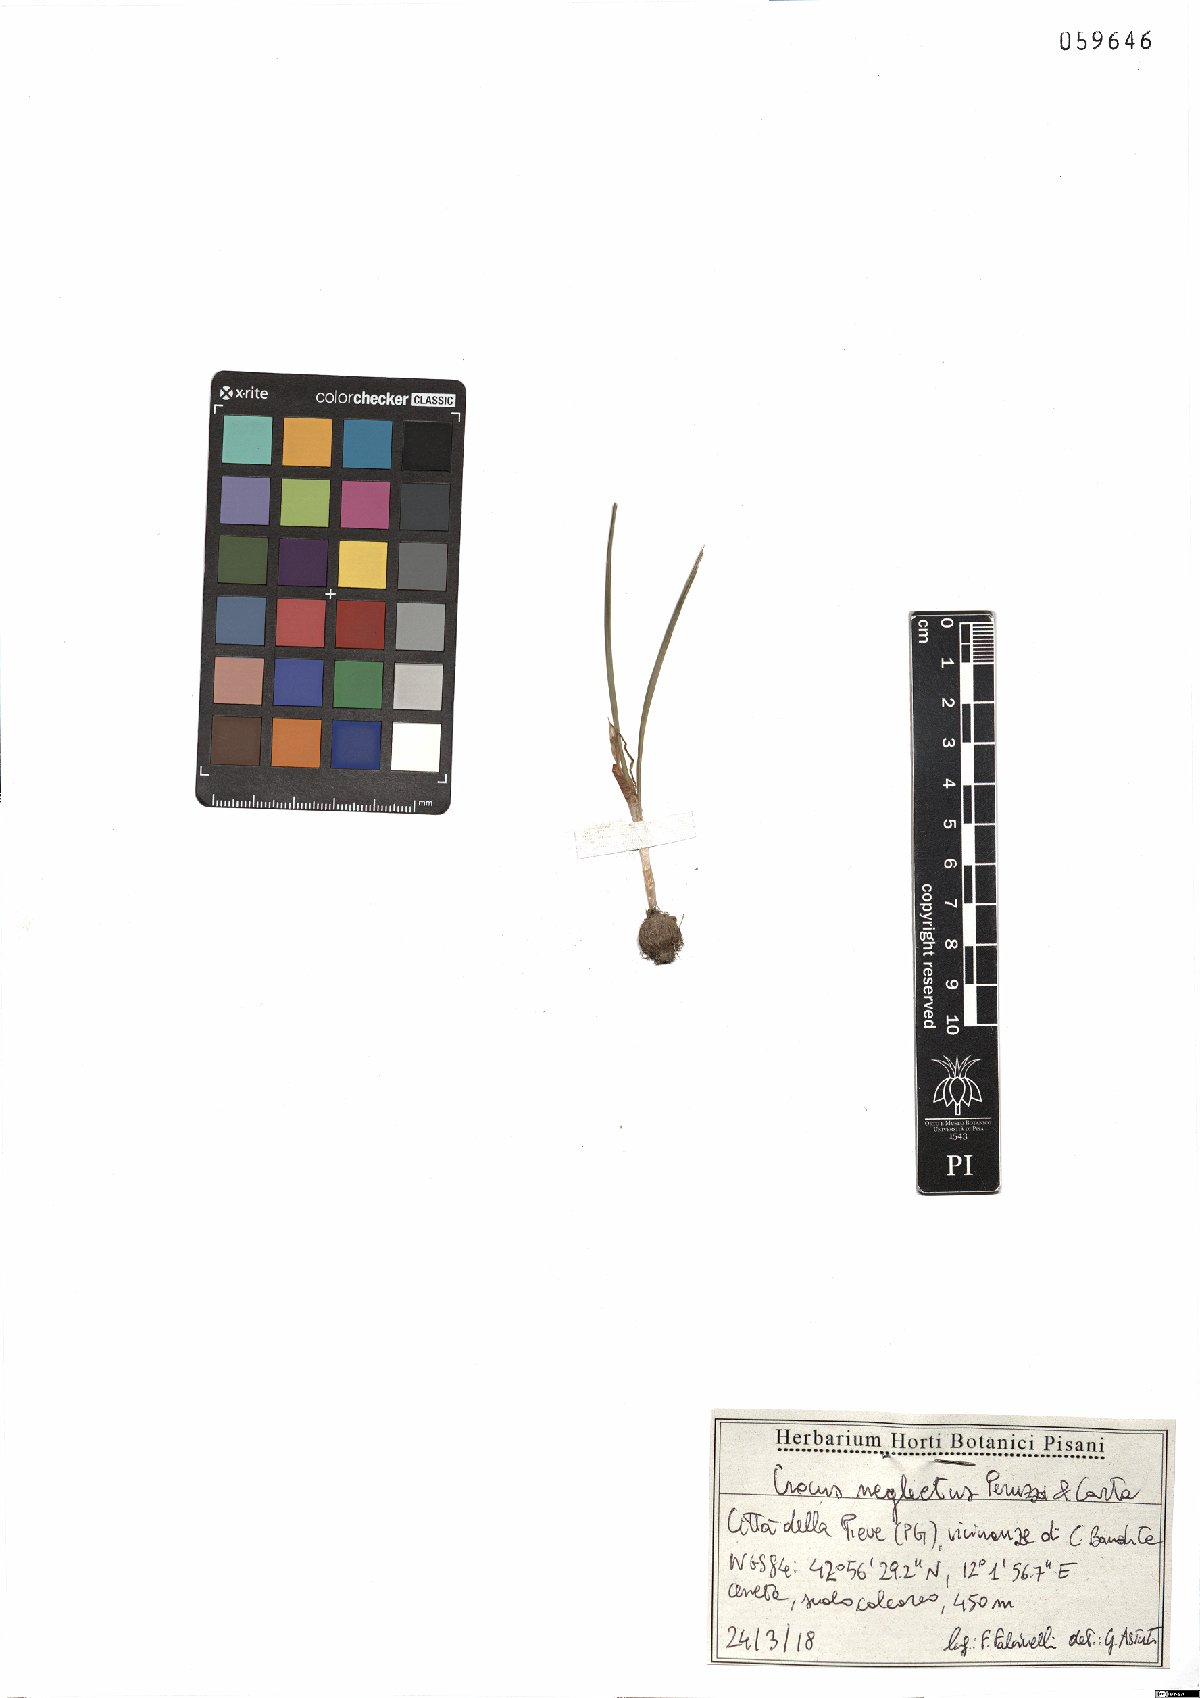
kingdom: Plantae
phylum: Tracheophyta
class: Liliopsida
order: Asparagales
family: Iridaceae
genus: Crocus
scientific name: Crocus neglectus
